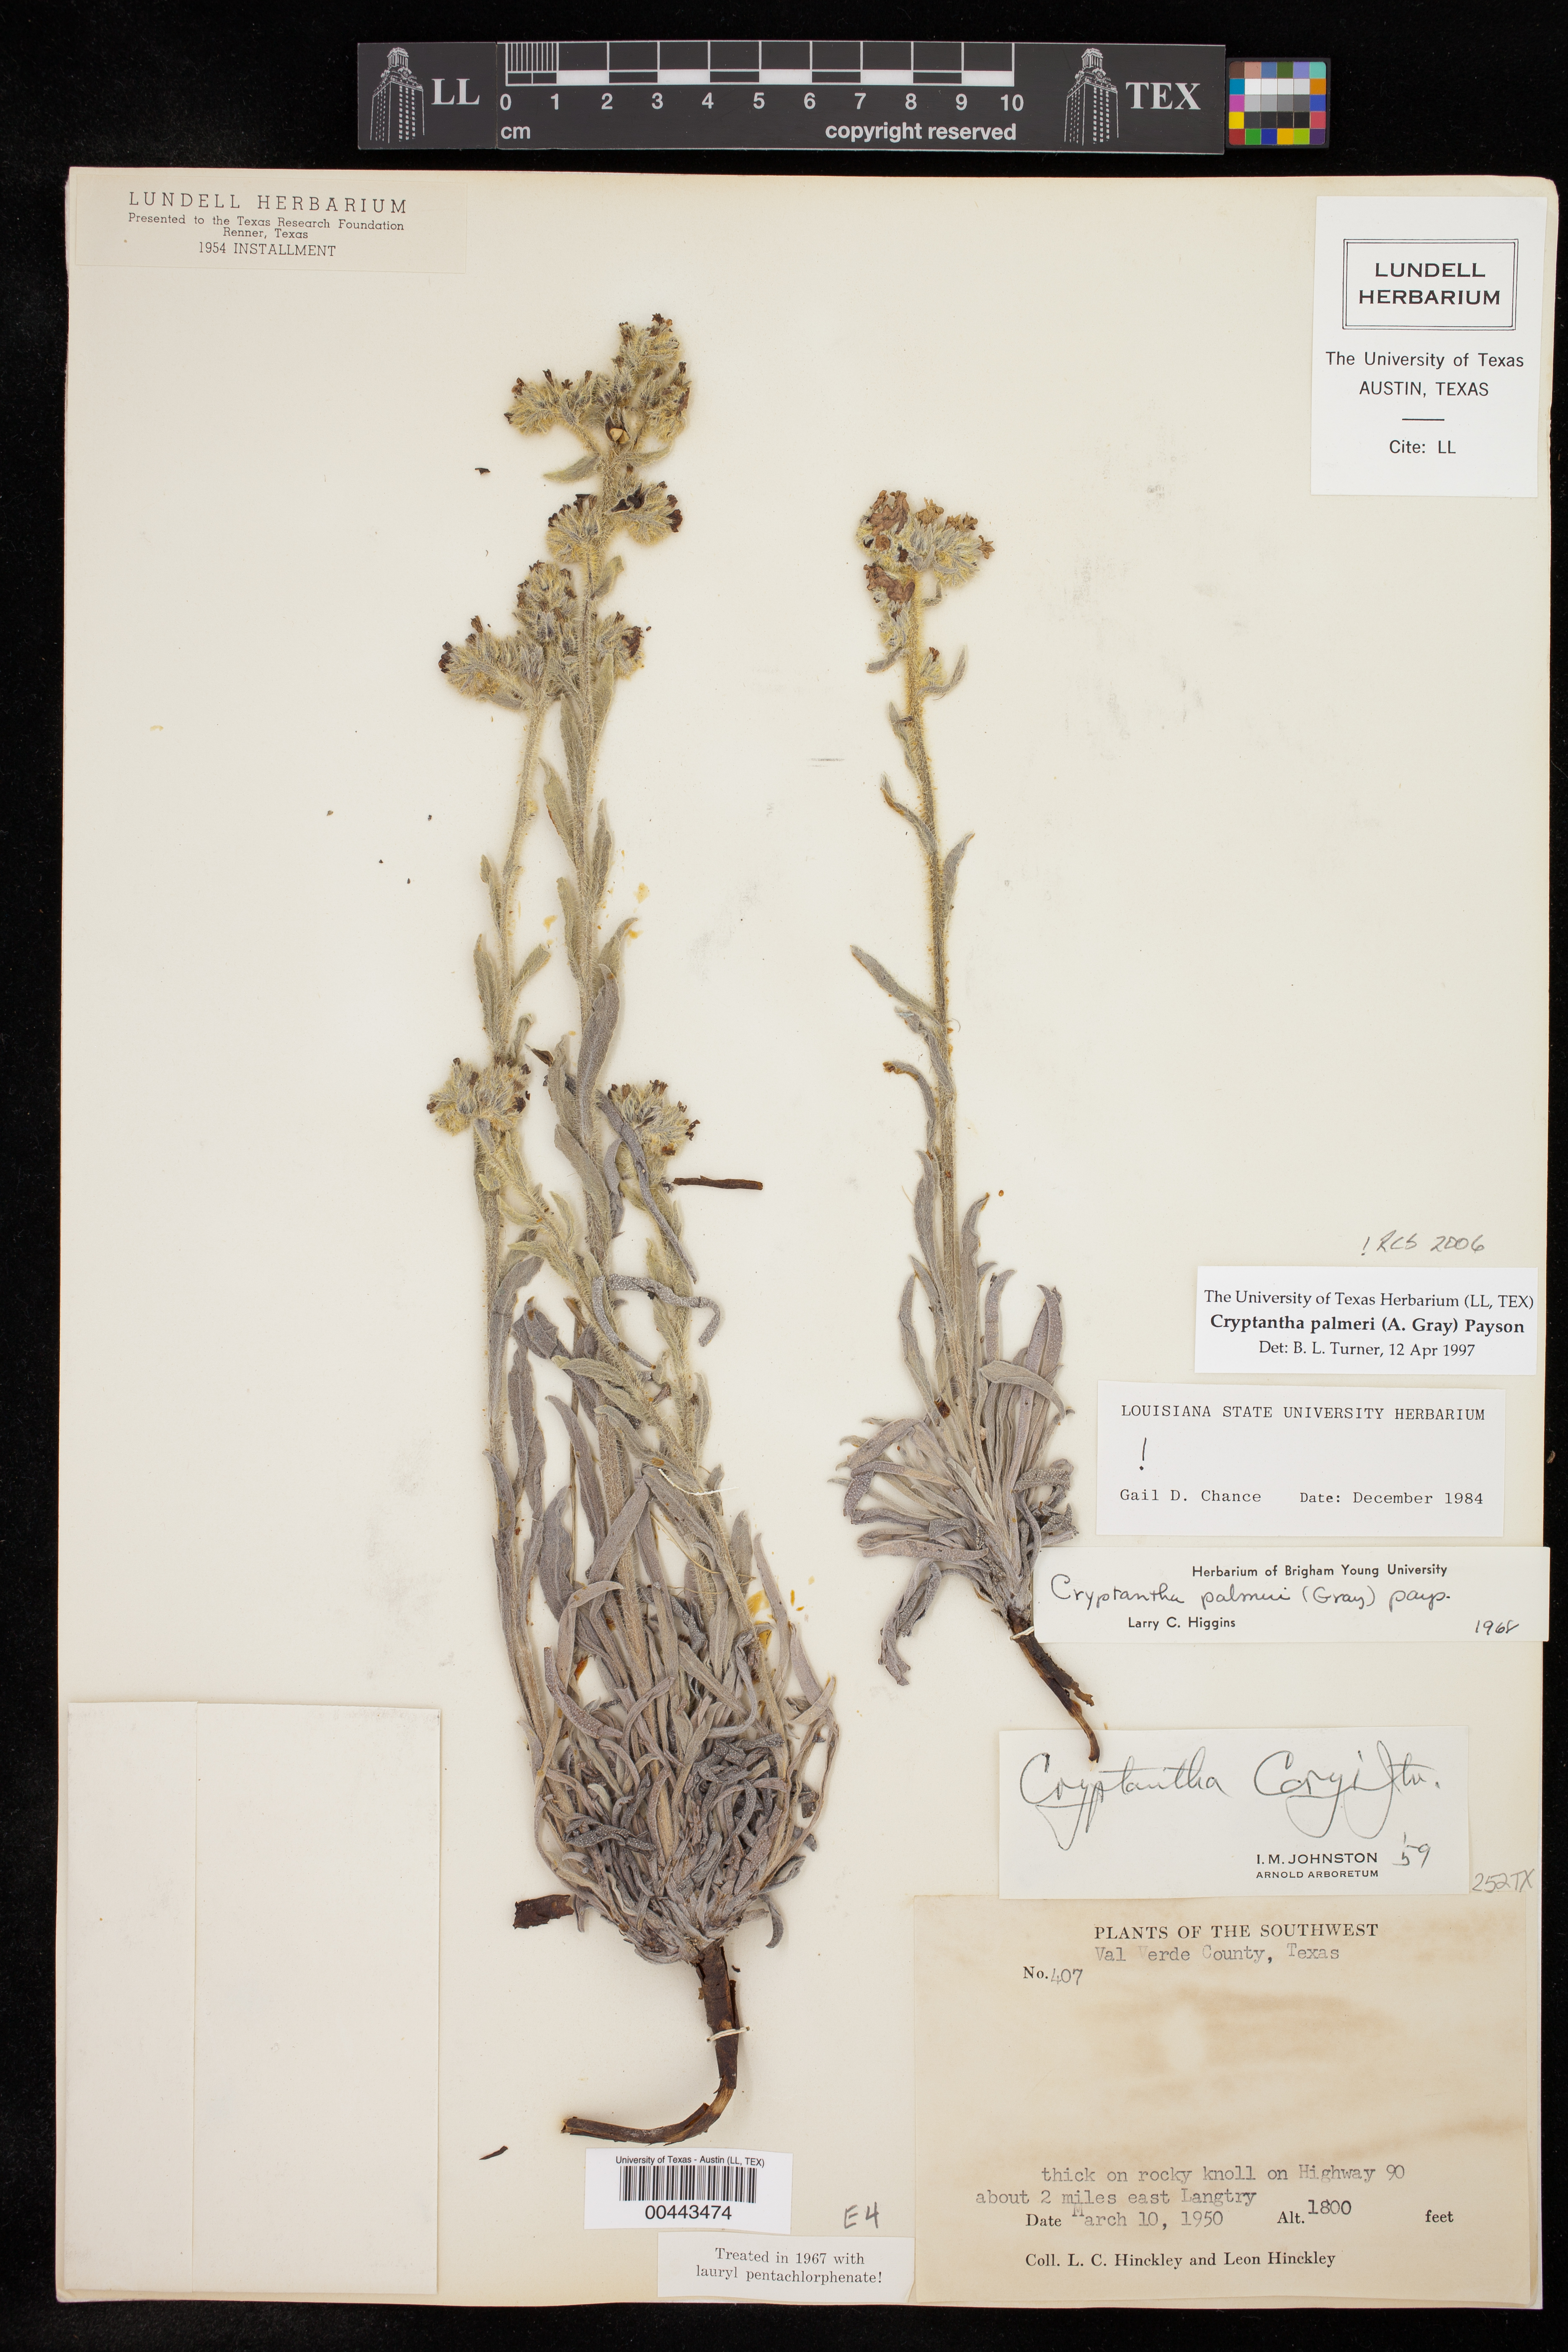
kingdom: Plantae
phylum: Tracheophyta
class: Magnoliopsida
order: Boraginales
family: Boraginaceae
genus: Oreocarya
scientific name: Oreocarya palmeri
